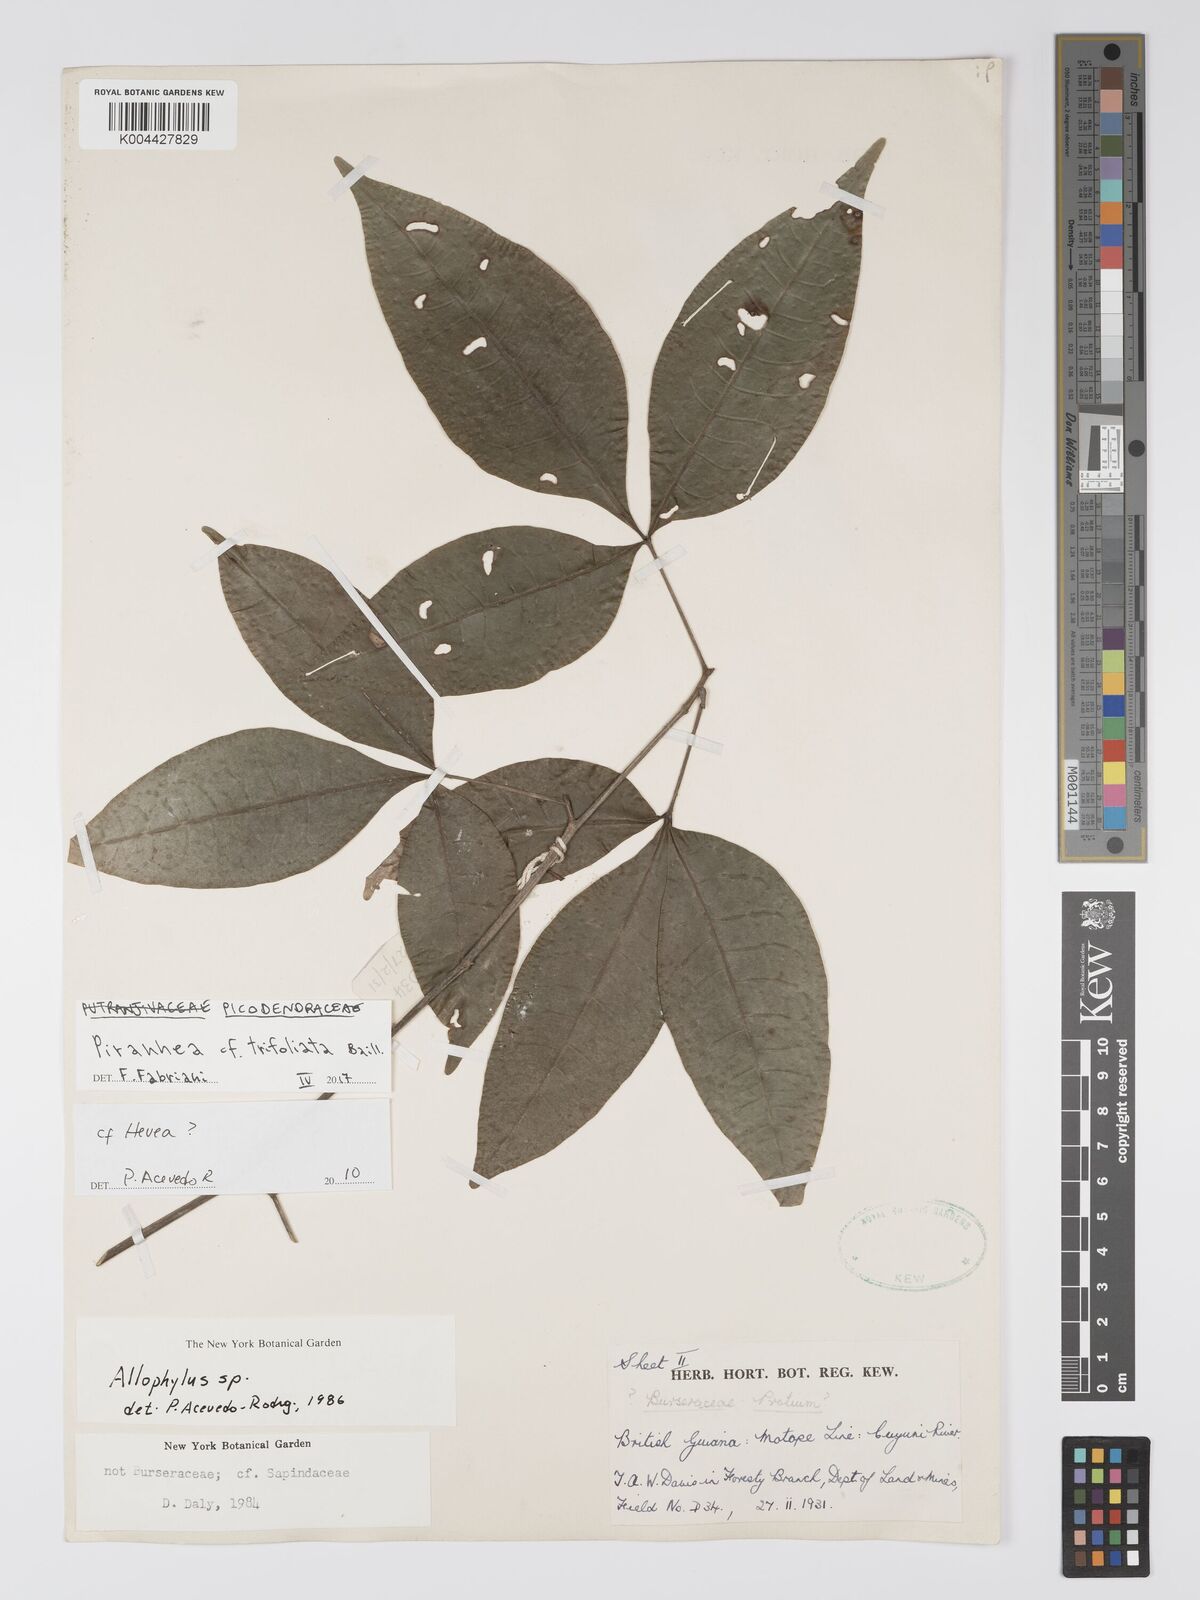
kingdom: Plantae
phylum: Tracheophyta
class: Magnoliopsida
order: Malpighiales
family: Picrodendraceae
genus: Piranhea
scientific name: Piranhea trifoliolata
